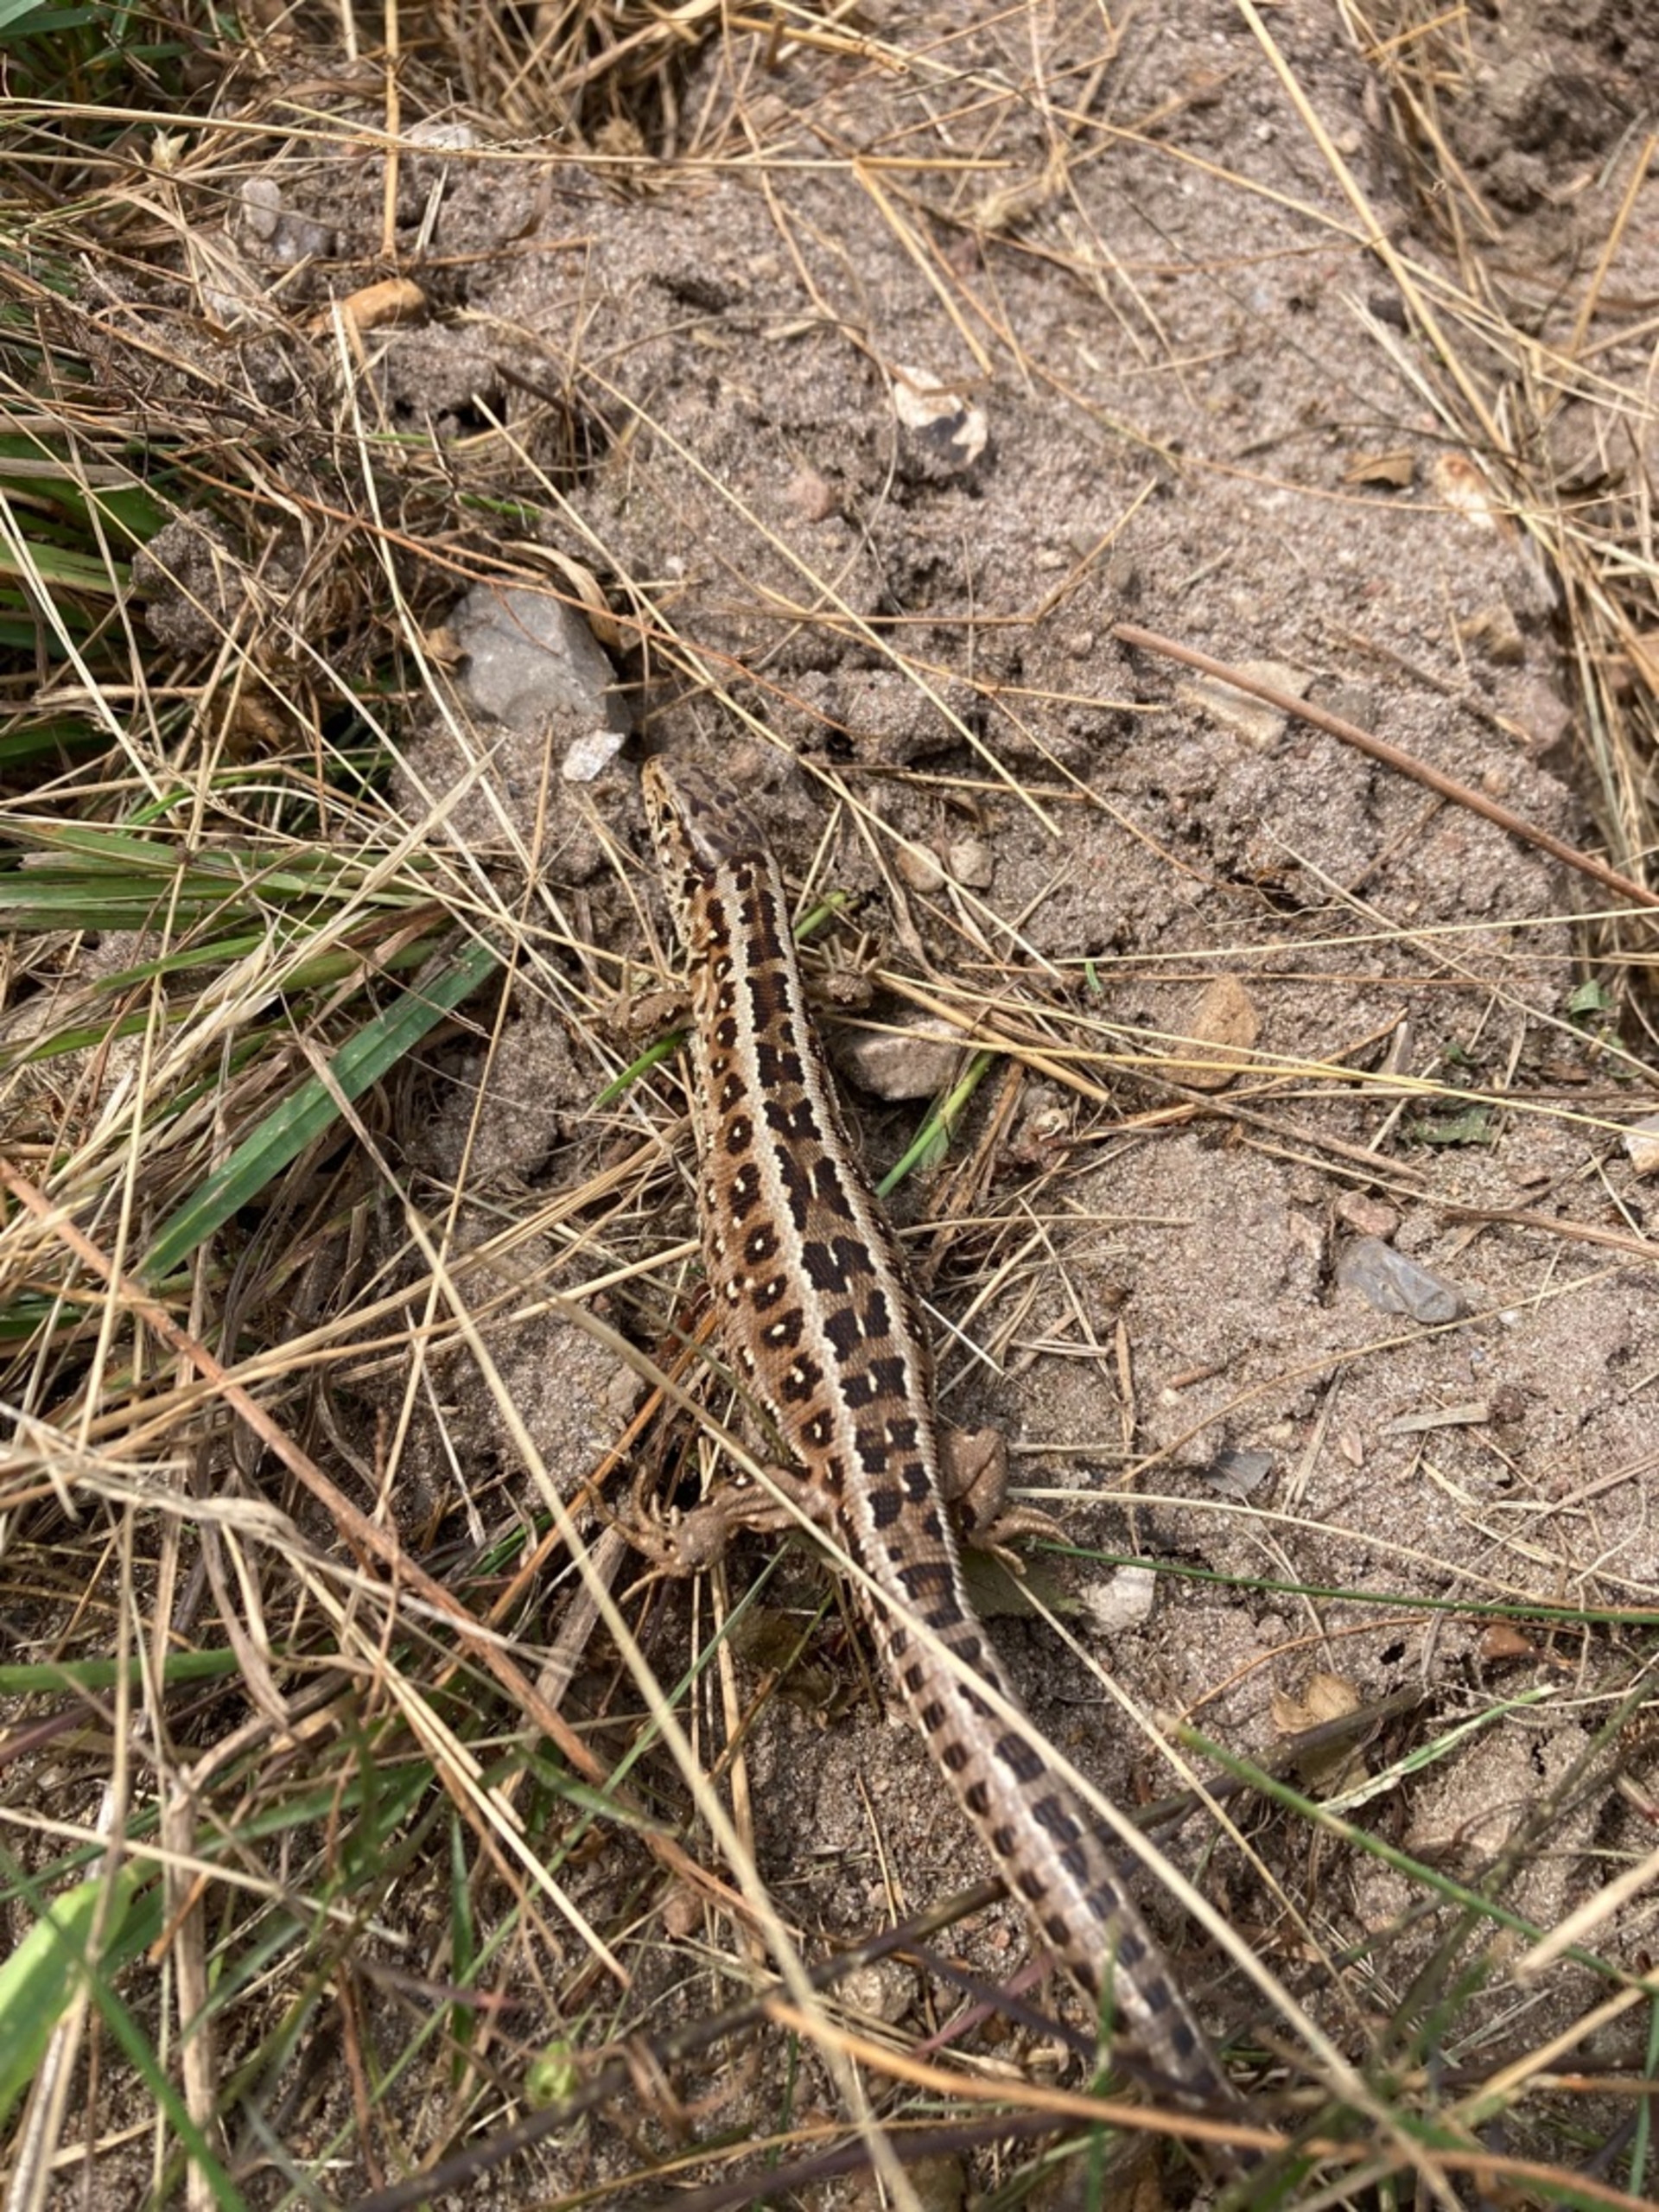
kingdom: Animalia
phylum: Chordata
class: Squamata
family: Lacertidae
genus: Lacerta
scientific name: Lacerta agilis
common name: Markfirben
